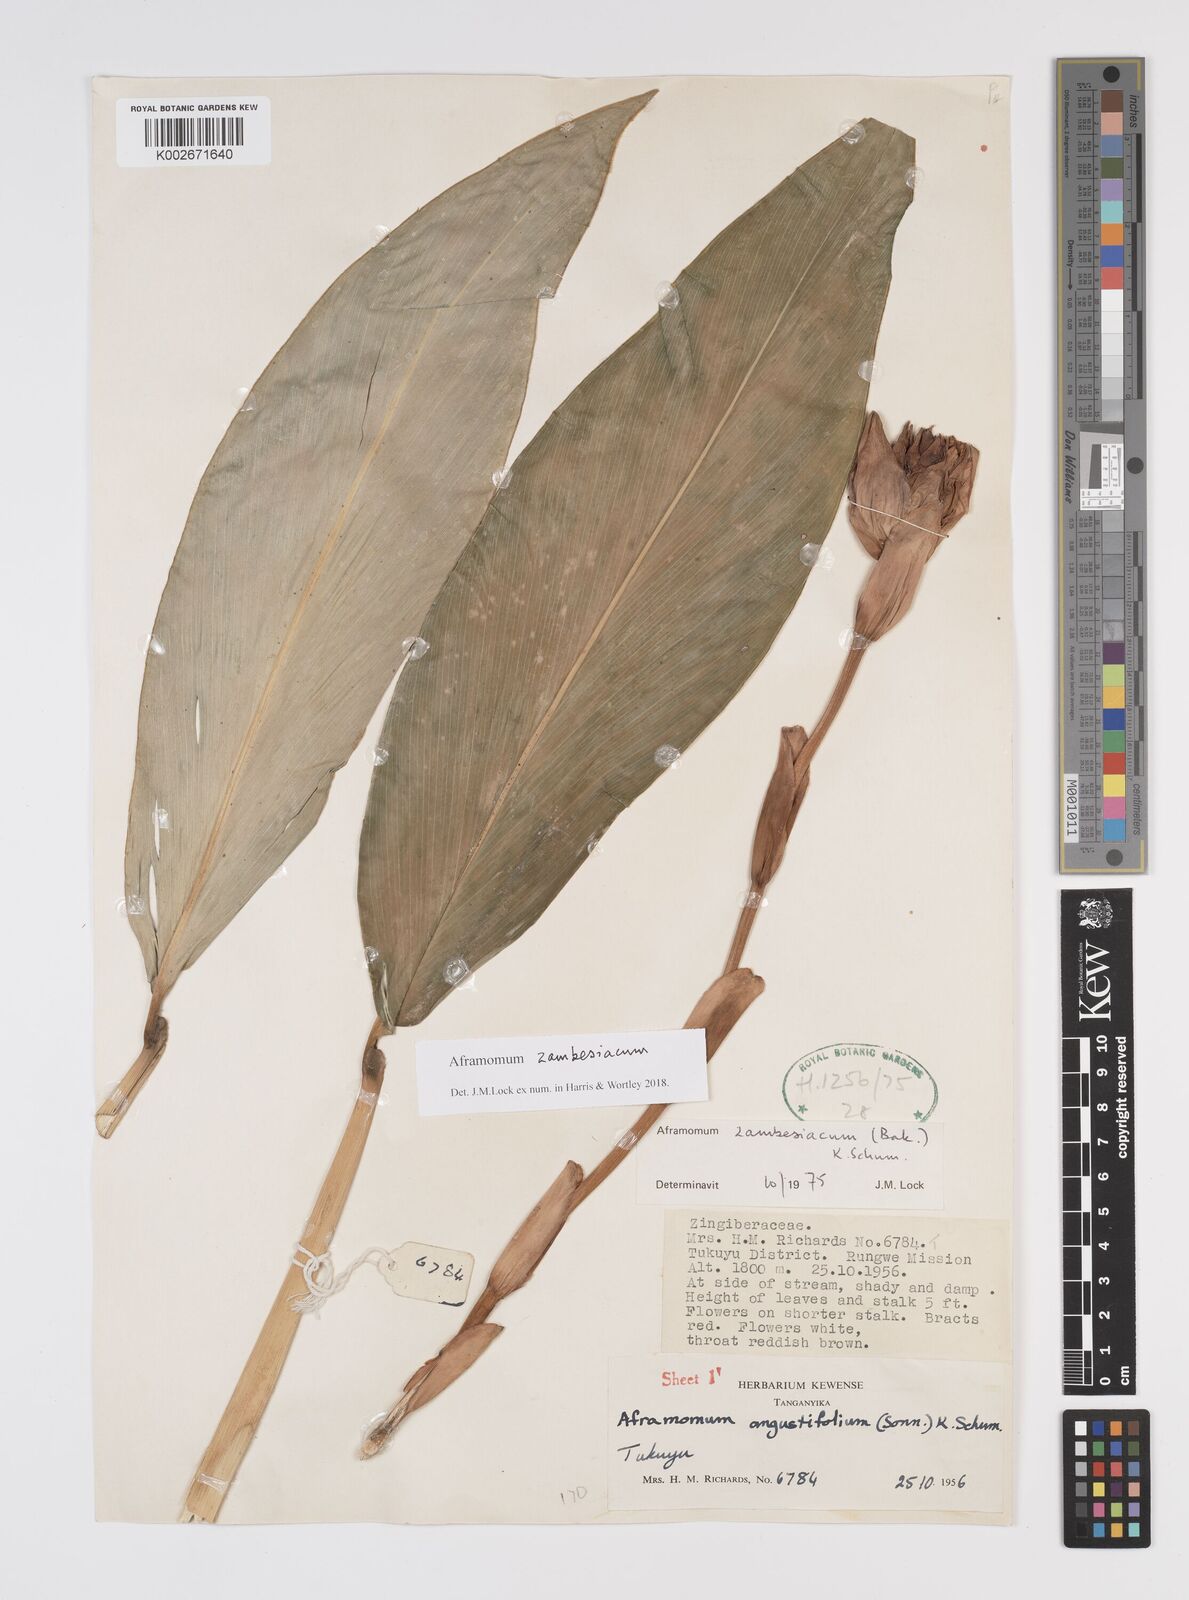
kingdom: Plantae
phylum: Tracheophyta
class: Liliopsida
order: Zingiberales
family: Zingiberaceae
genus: Aframomum
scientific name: Aframomum zambesiacum
